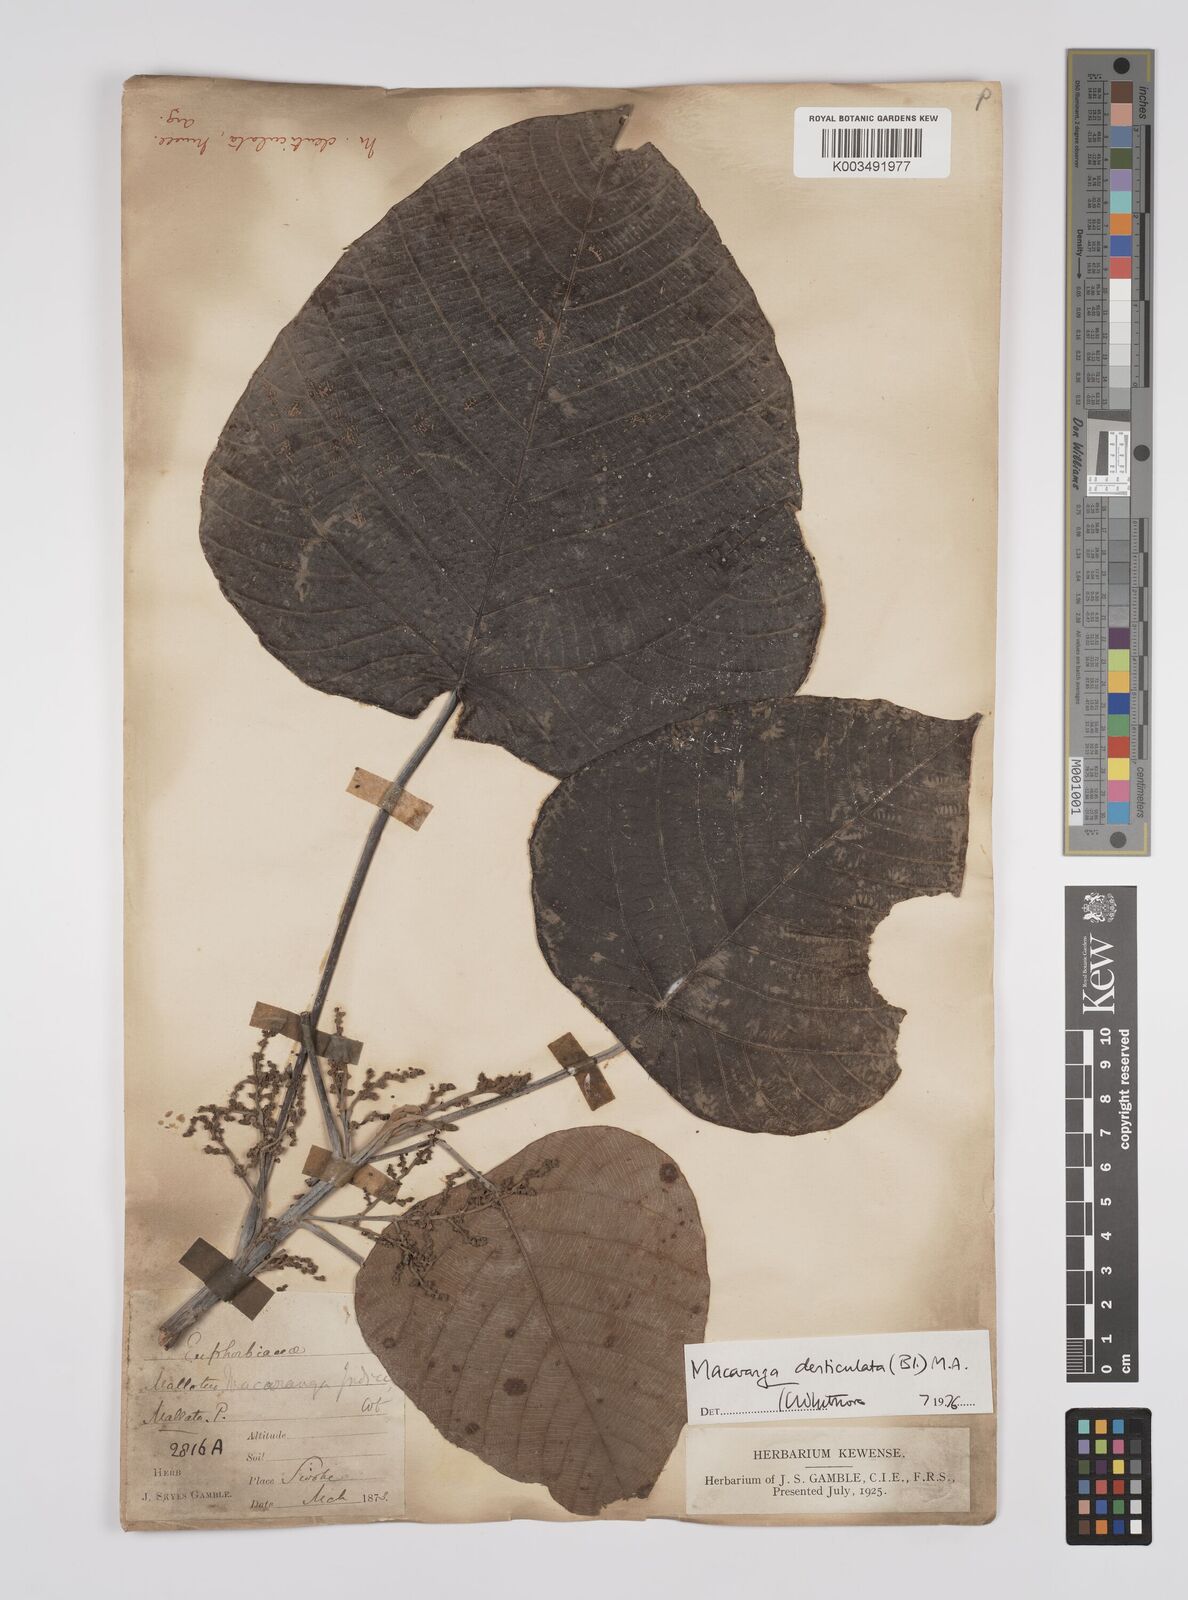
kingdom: Plantae
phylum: Tracheophyta
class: Magnoliopsida
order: Malpighiales
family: Euphorbiaceae
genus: Macaranga
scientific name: Macaranga
